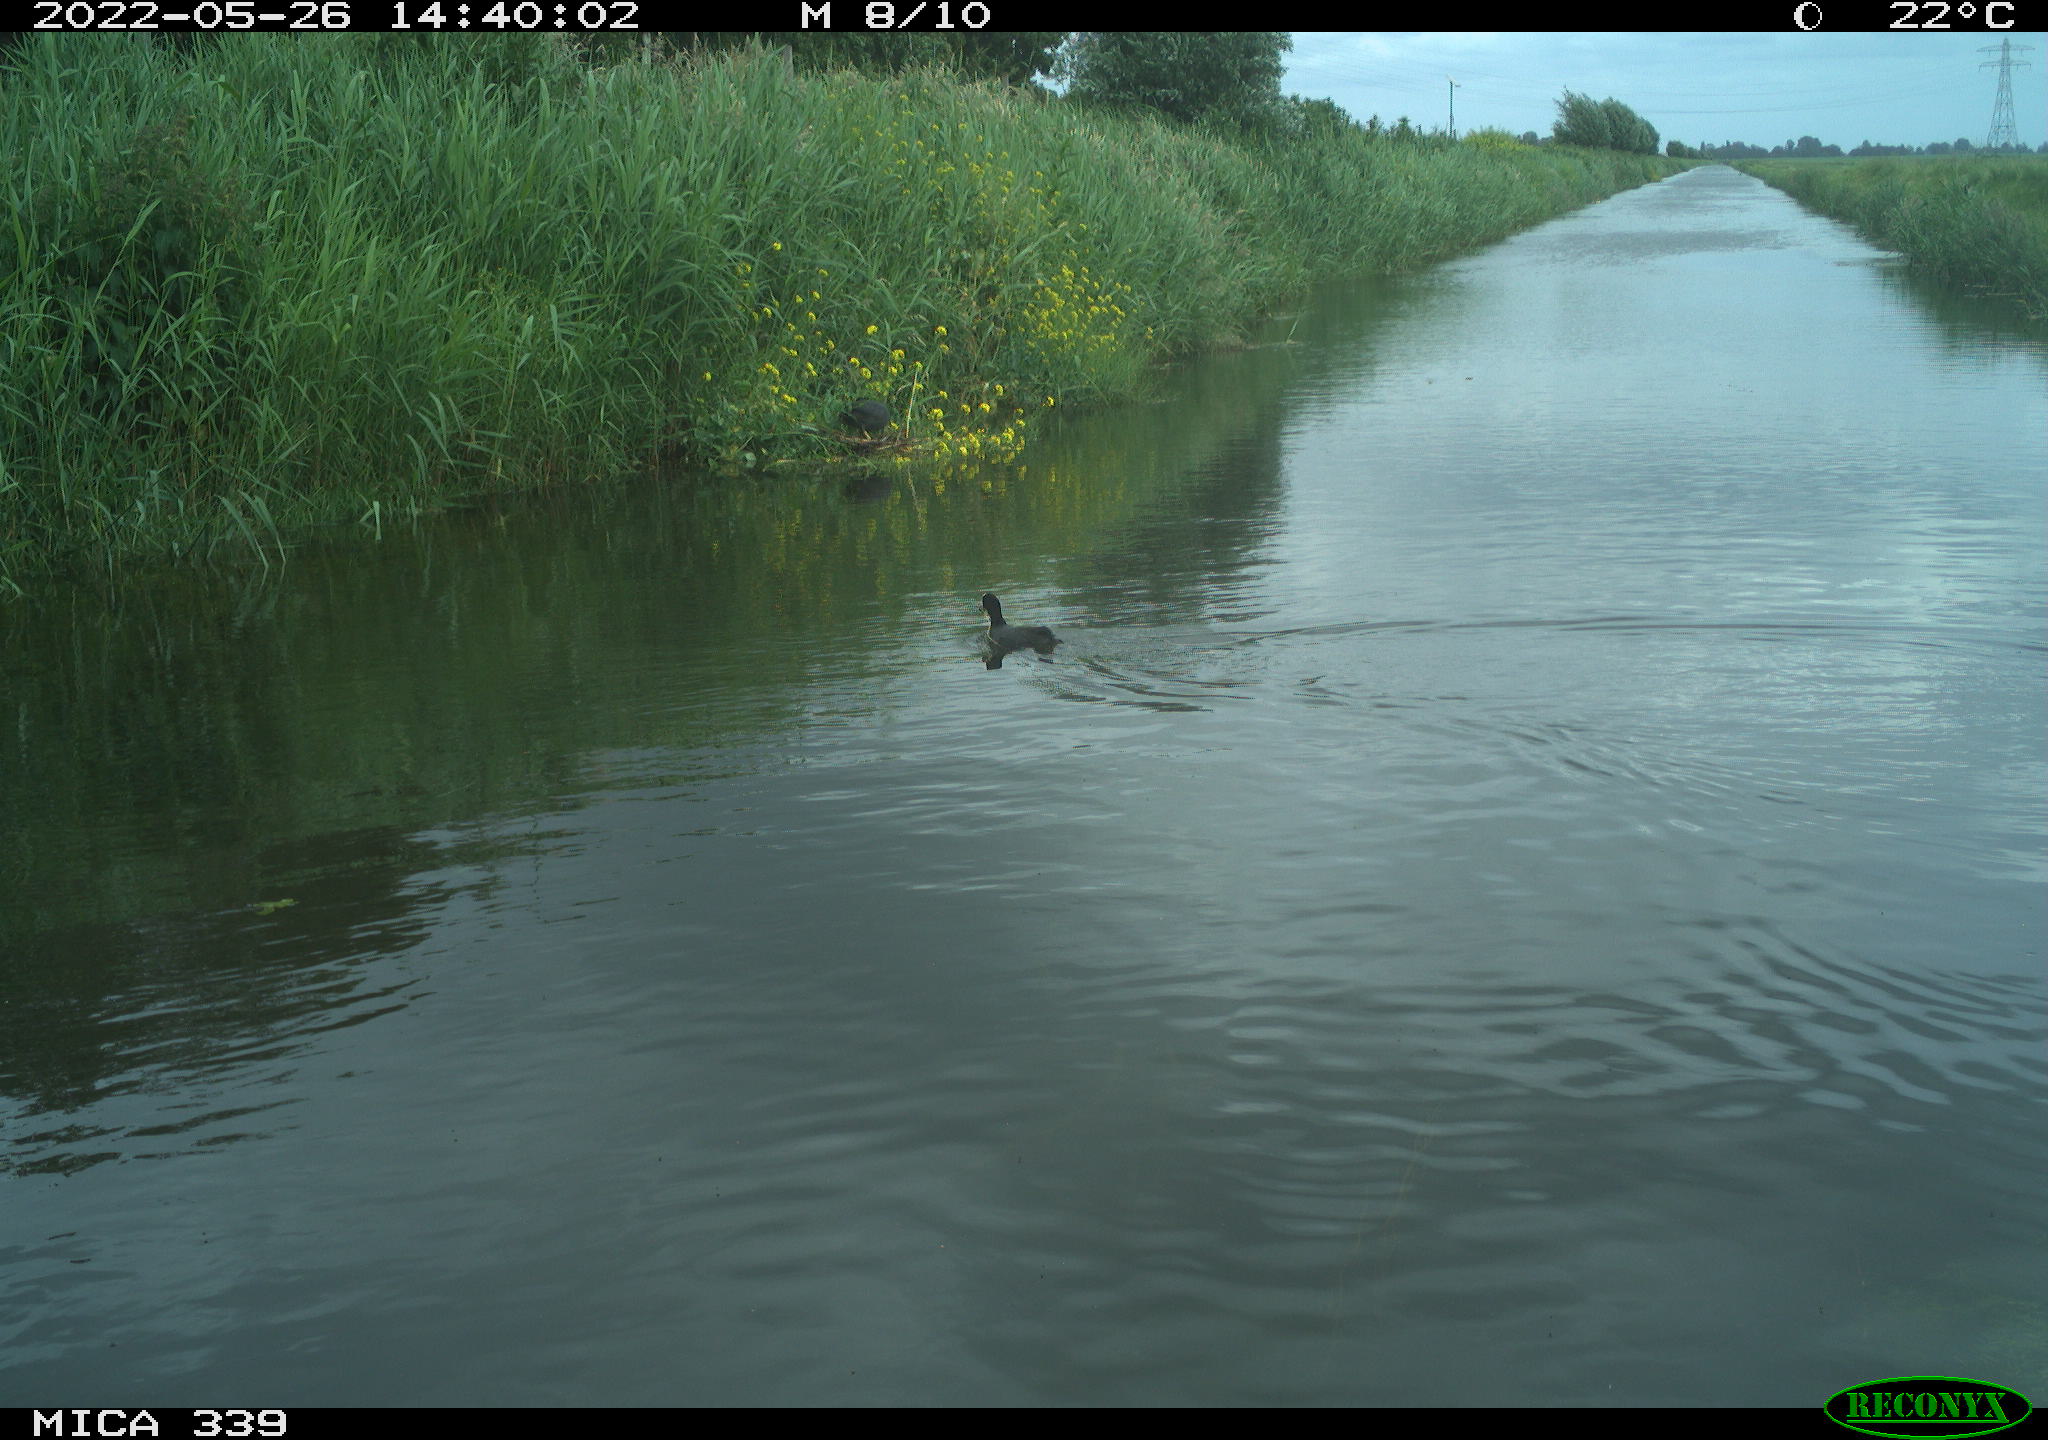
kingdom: Animalia
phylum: Chordata
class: Aves
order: Gruiformes
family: Rallidae
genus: Fulica
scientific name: Fulica atra
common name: Eurasian coot
